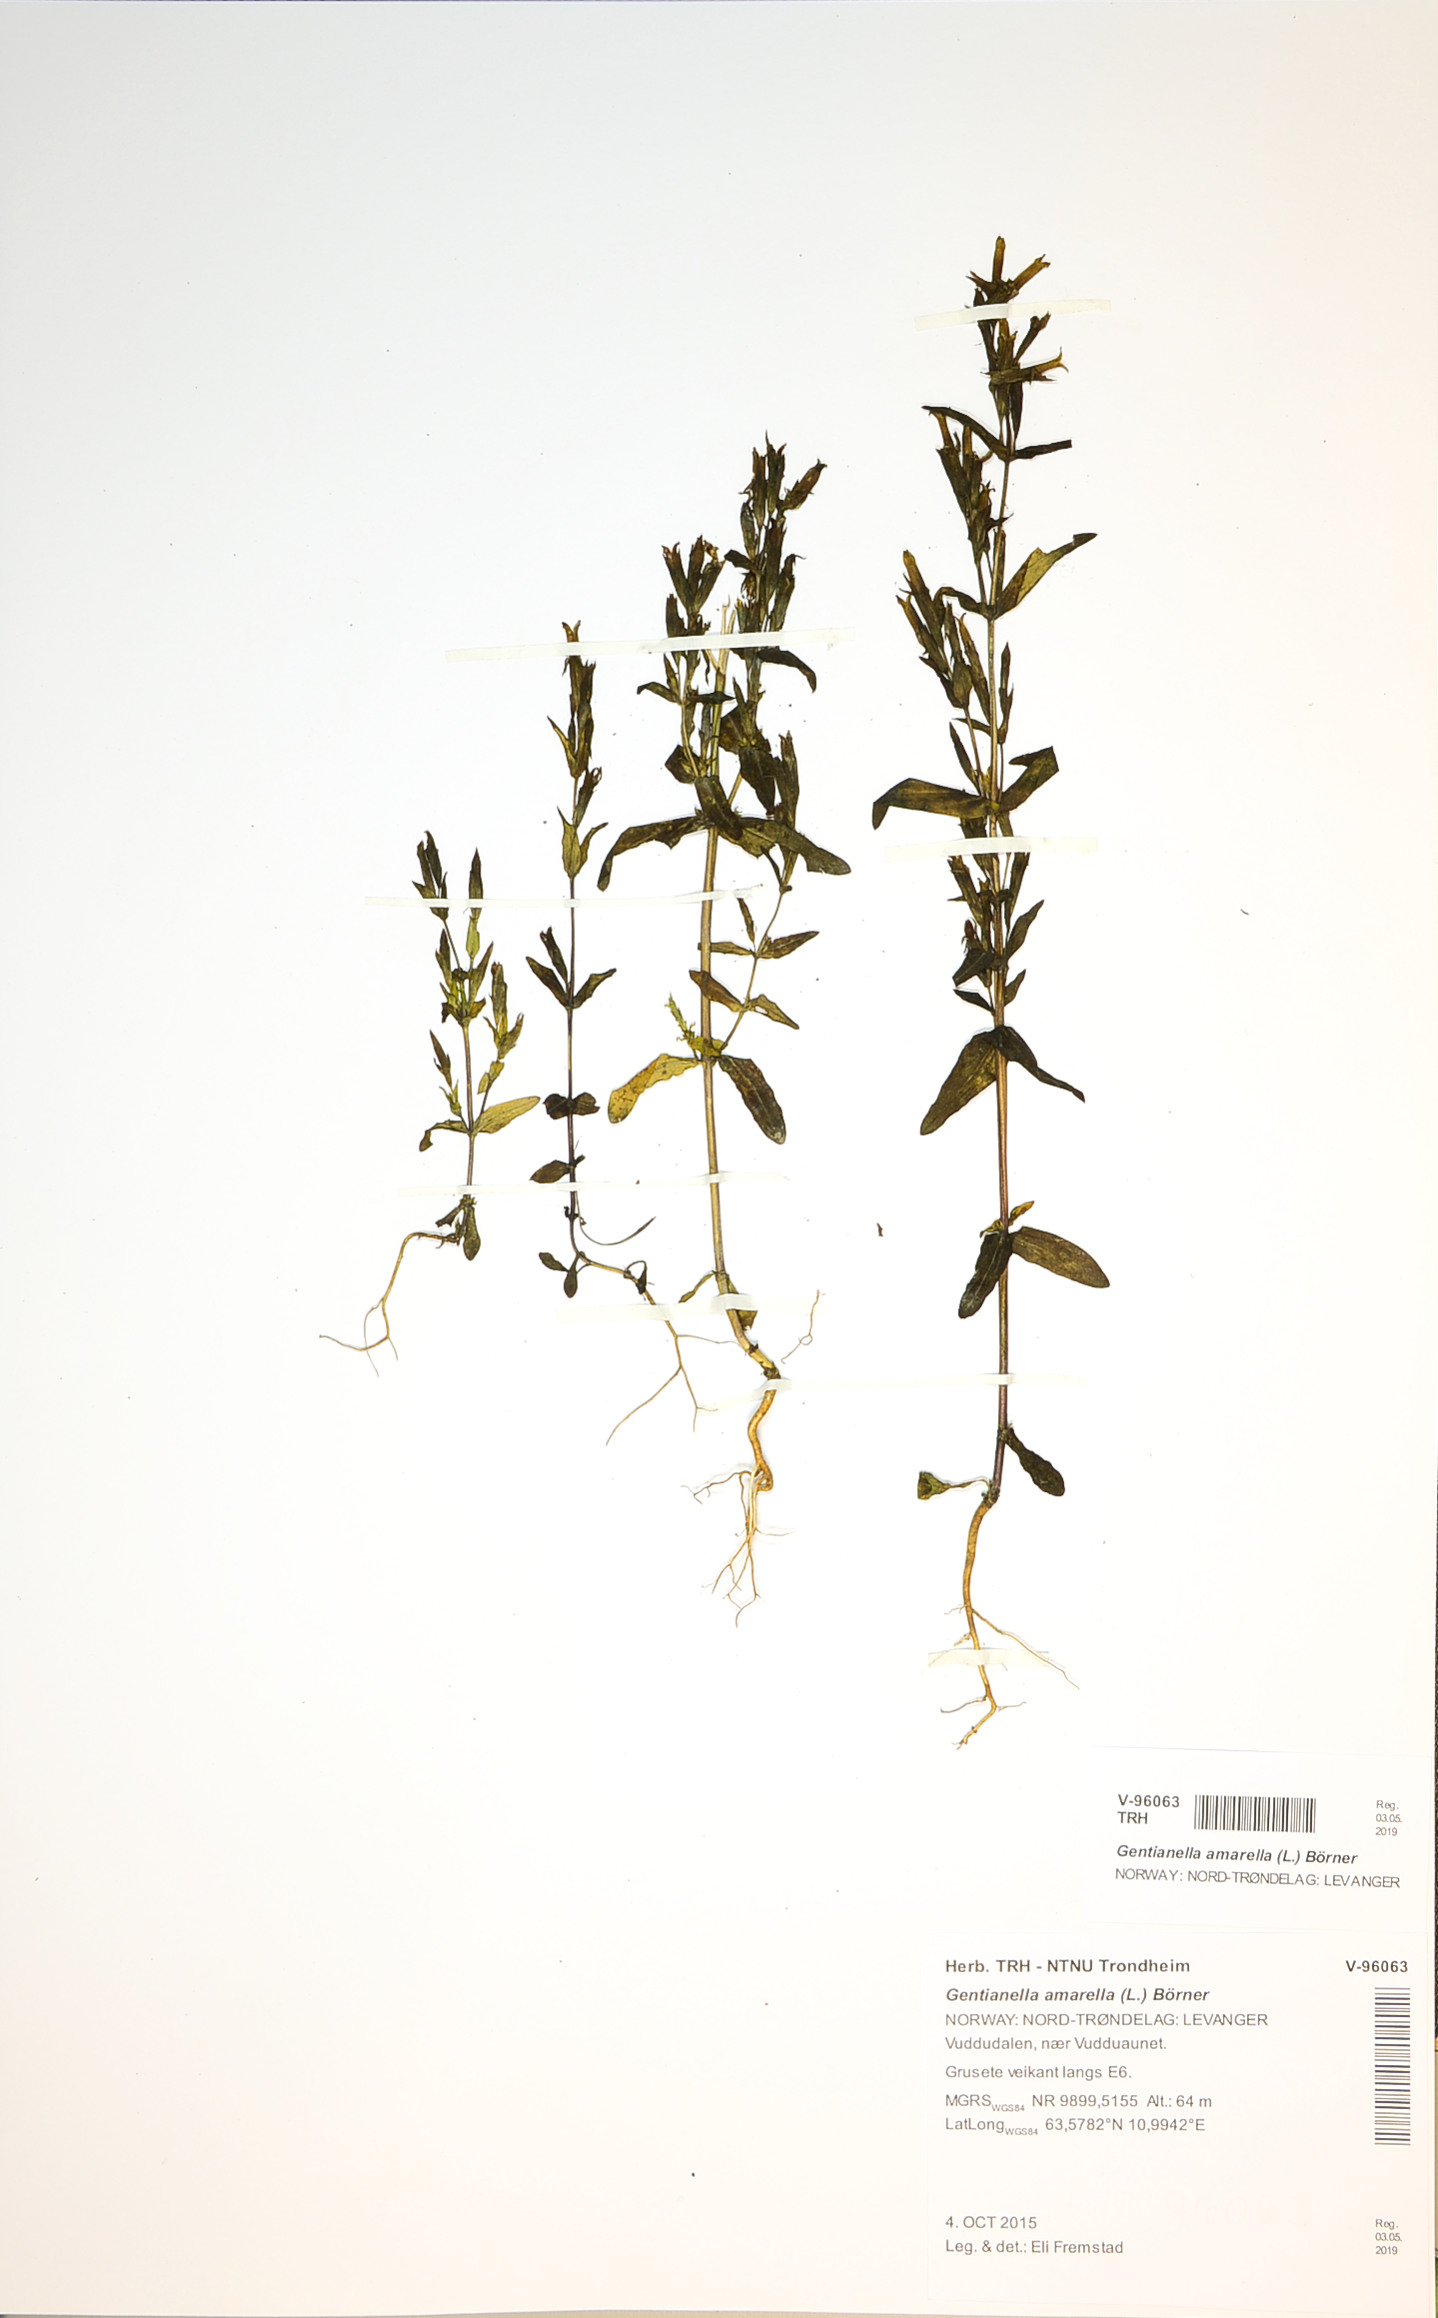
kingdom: Plantae
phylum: Tracheophyta
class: Magnoliopsida
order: Gentianales
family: Gentianaceae
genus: Gentianella
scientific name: Gentianella amarella
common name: Autumn gentian
